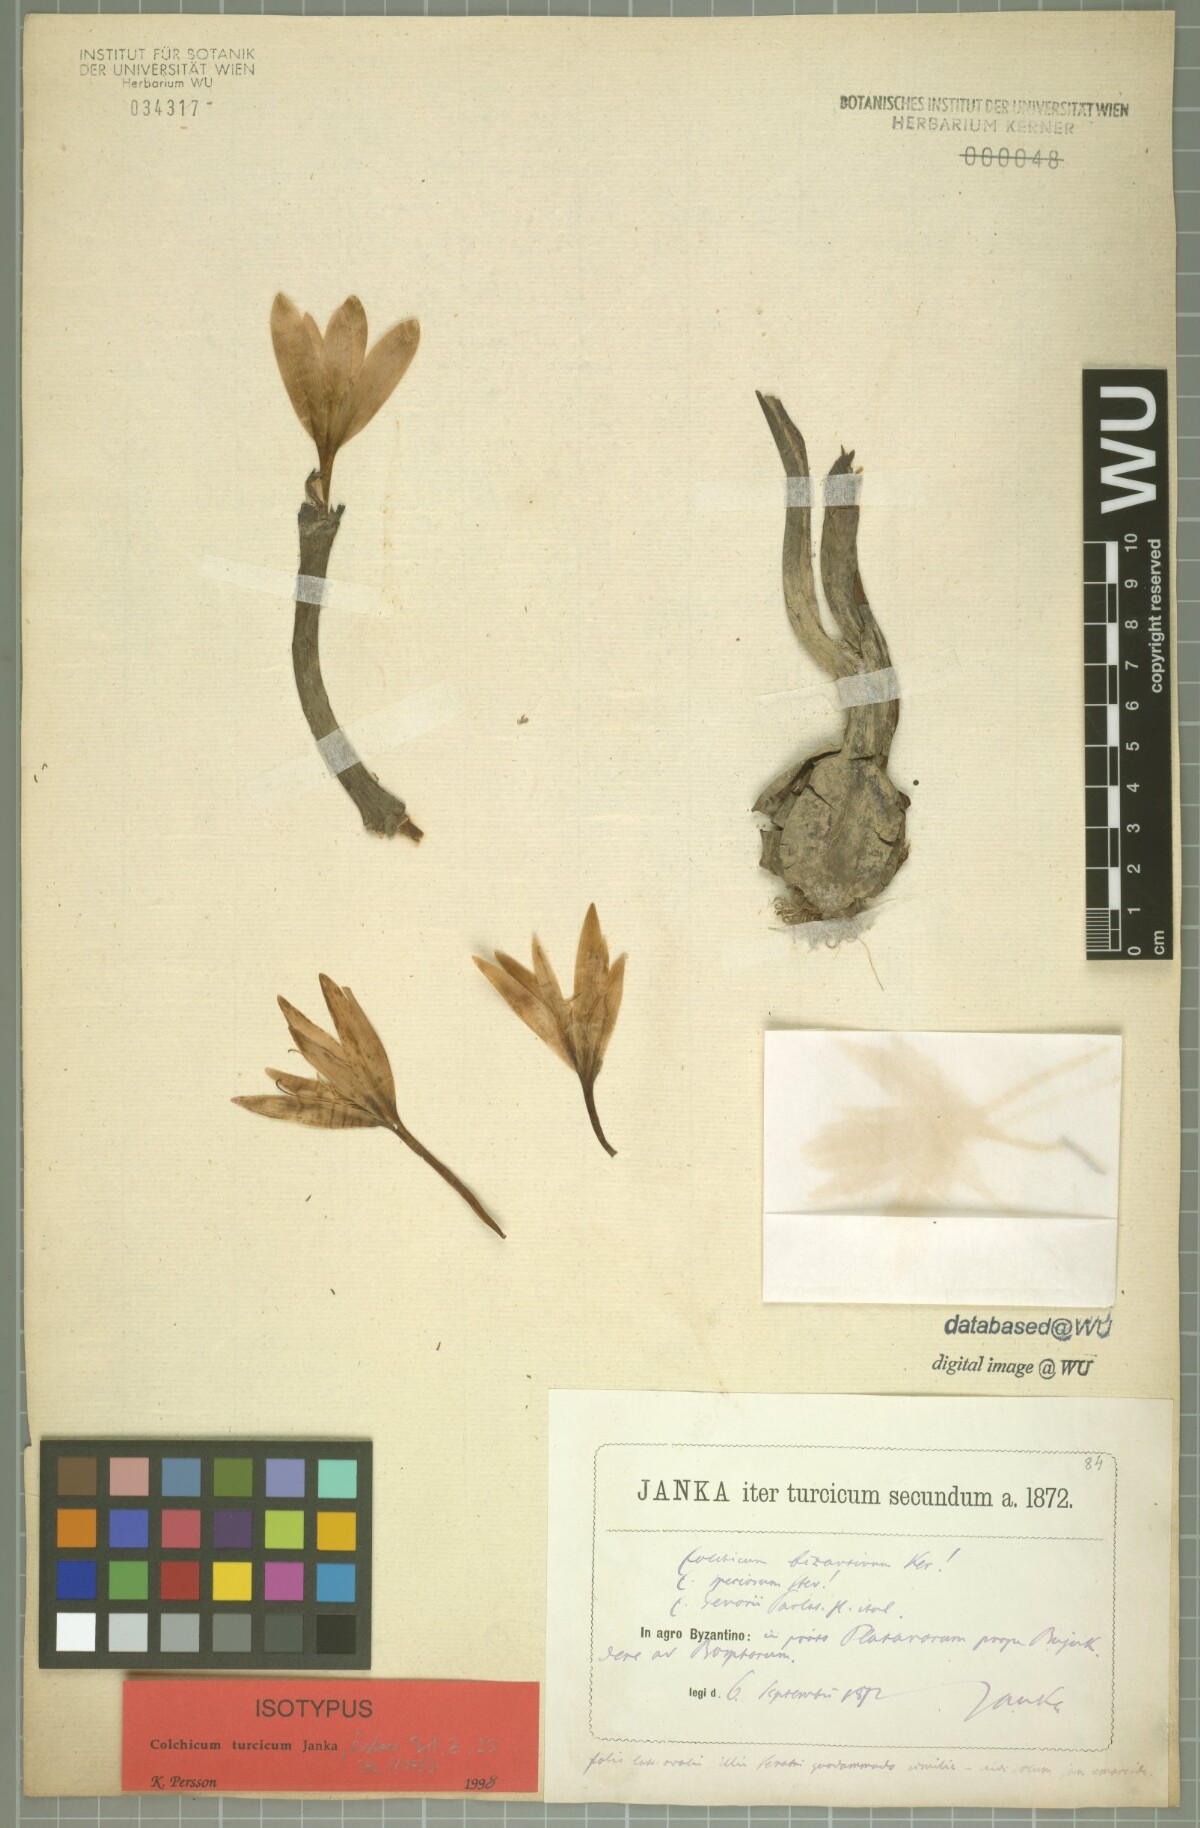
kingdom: Plantae
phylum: Tracheophyta
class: Liliopsida
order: Liliales
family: Colchicaceae
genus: Colchicum
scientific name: Colchicum turcicum
